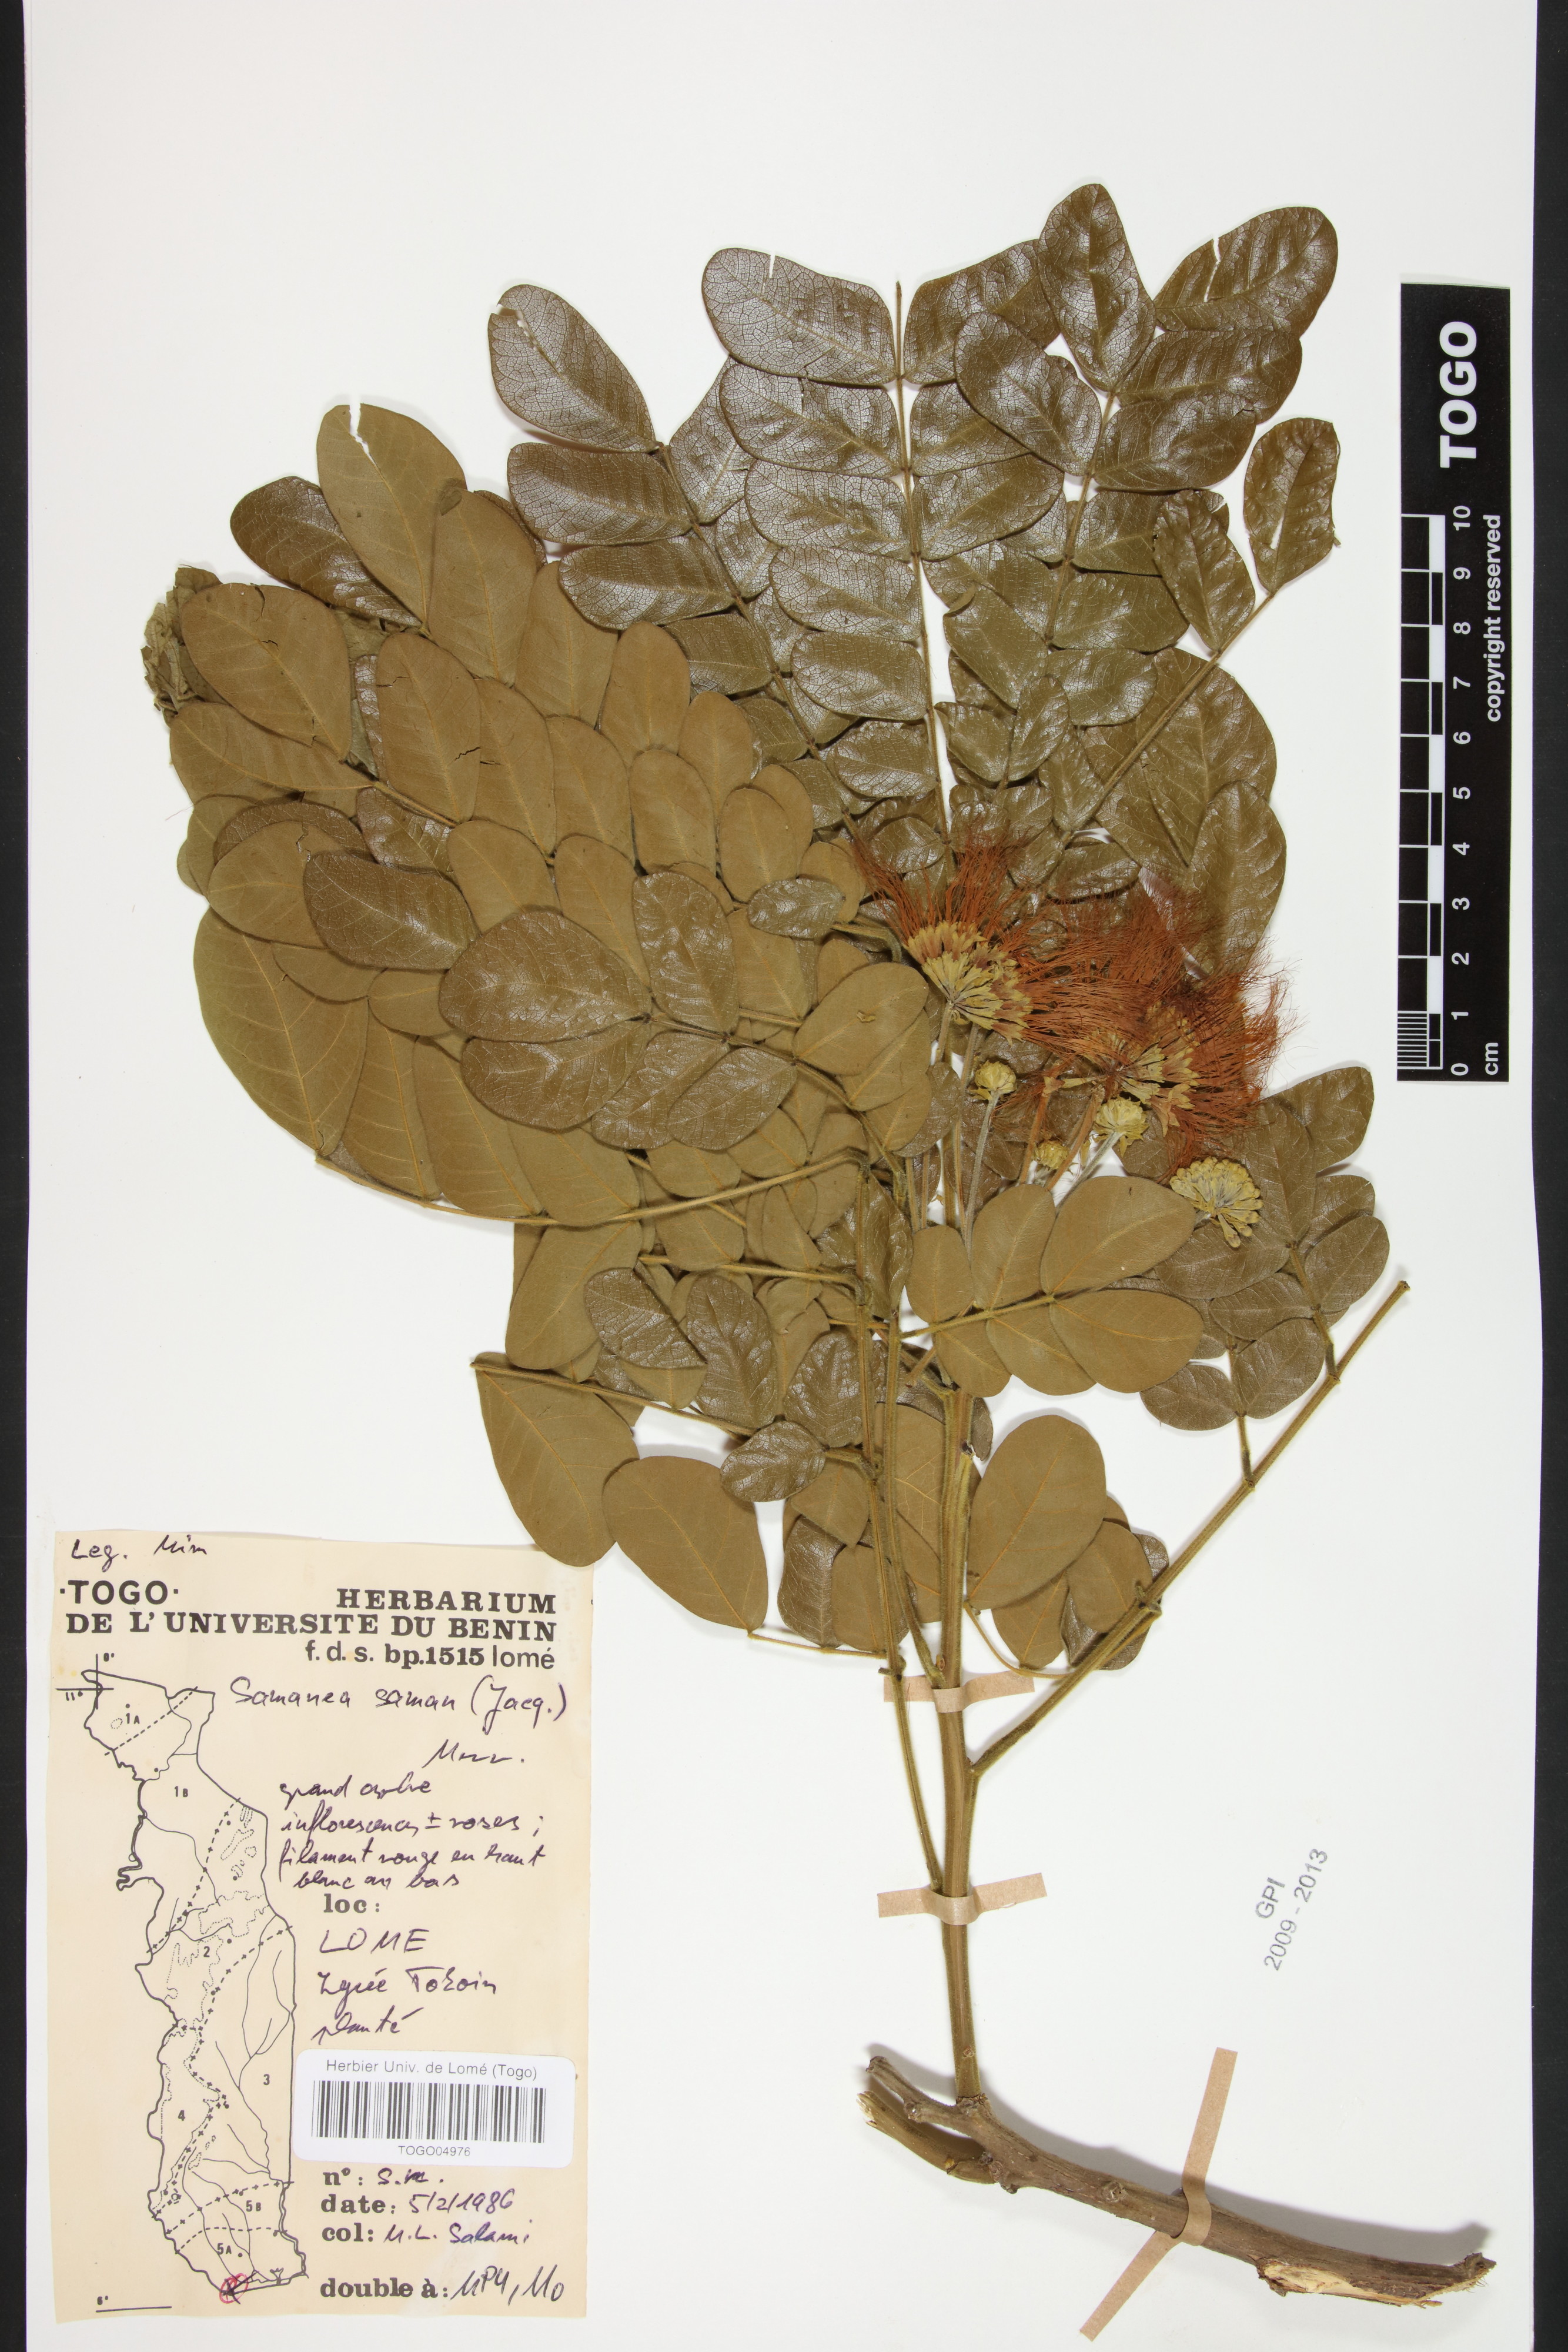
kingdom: Plantae
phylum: Tracheophyta
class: Magnoliopsida
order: Fabales
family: Fabaceae
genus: Samanea
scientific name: Samanea saman
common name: Raintree
